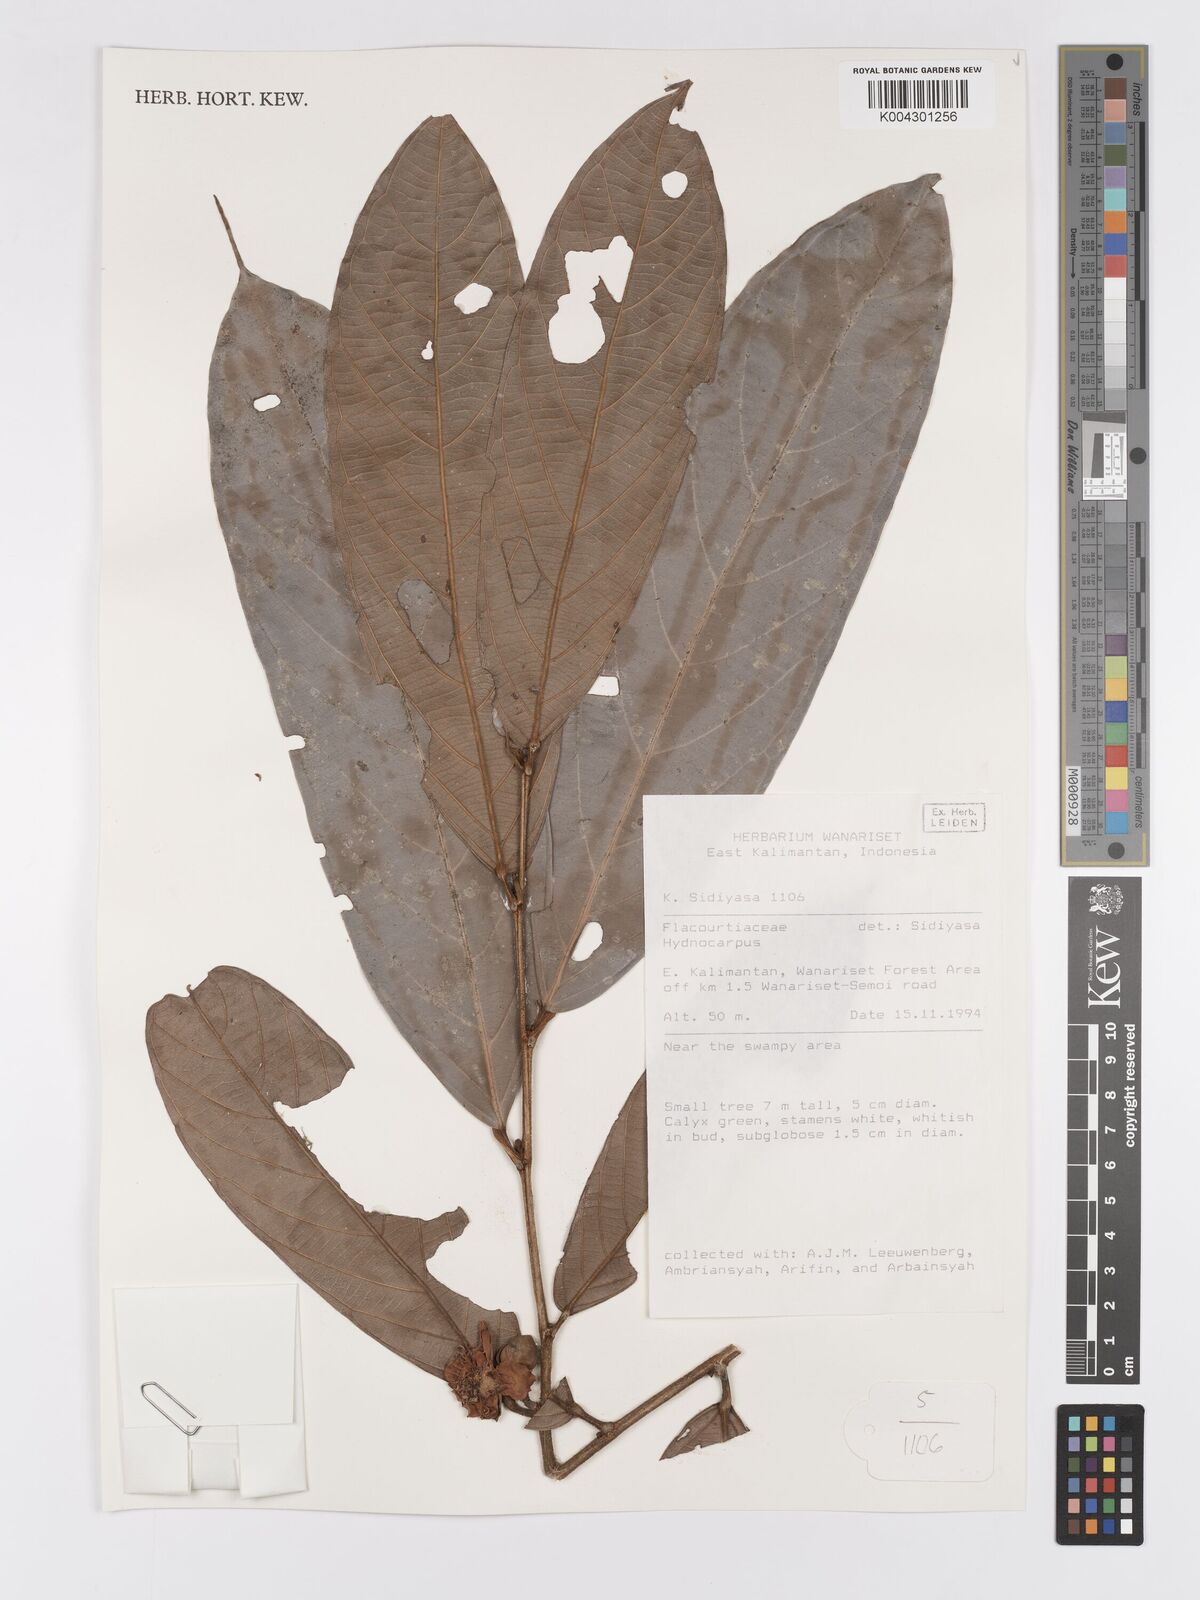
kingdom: Plantae
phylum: Tracheophyta
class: Magnoliopsida
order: Malpighiales
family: Achariaceae
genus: Hydnocarpus
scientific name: Hydnocarpus
